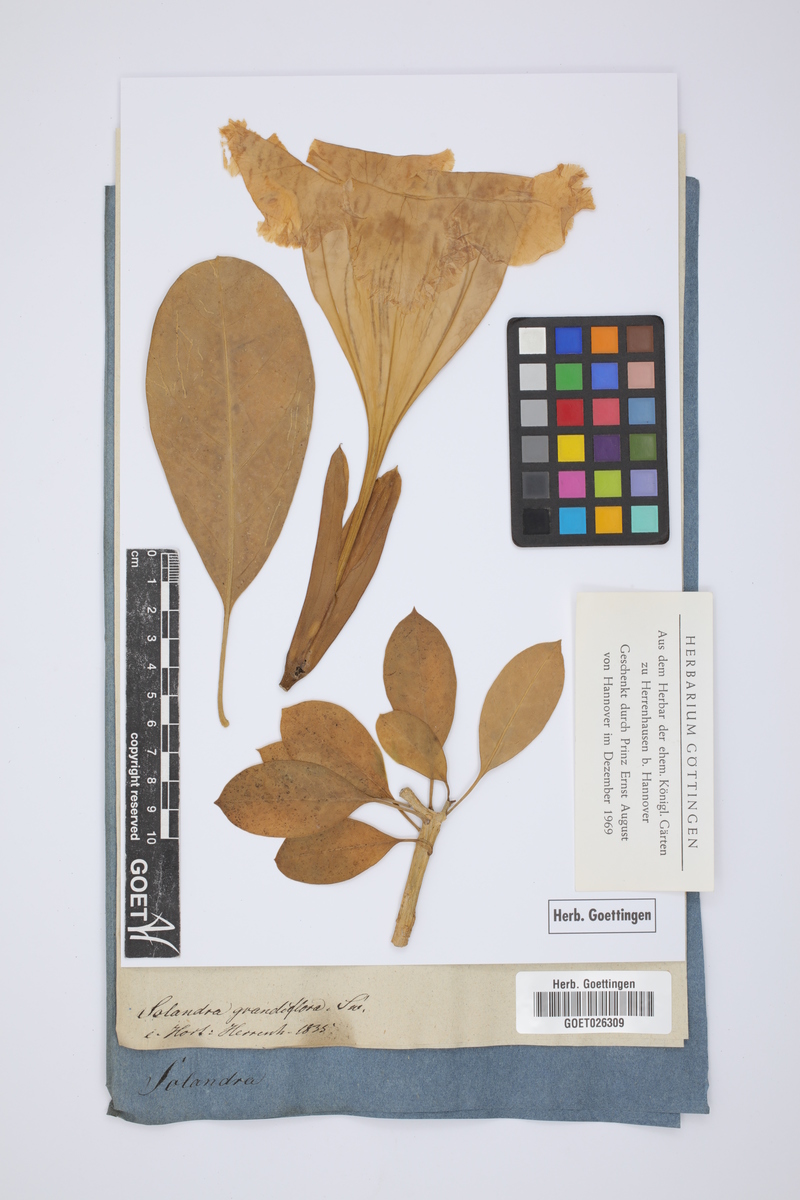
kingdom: Plantae
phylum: Tracheophyta
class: Magnoliopsida
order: Solanales
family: Solanaceae
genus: Solandra
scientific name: Solandra grandiflora
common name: Showy chalicevine
